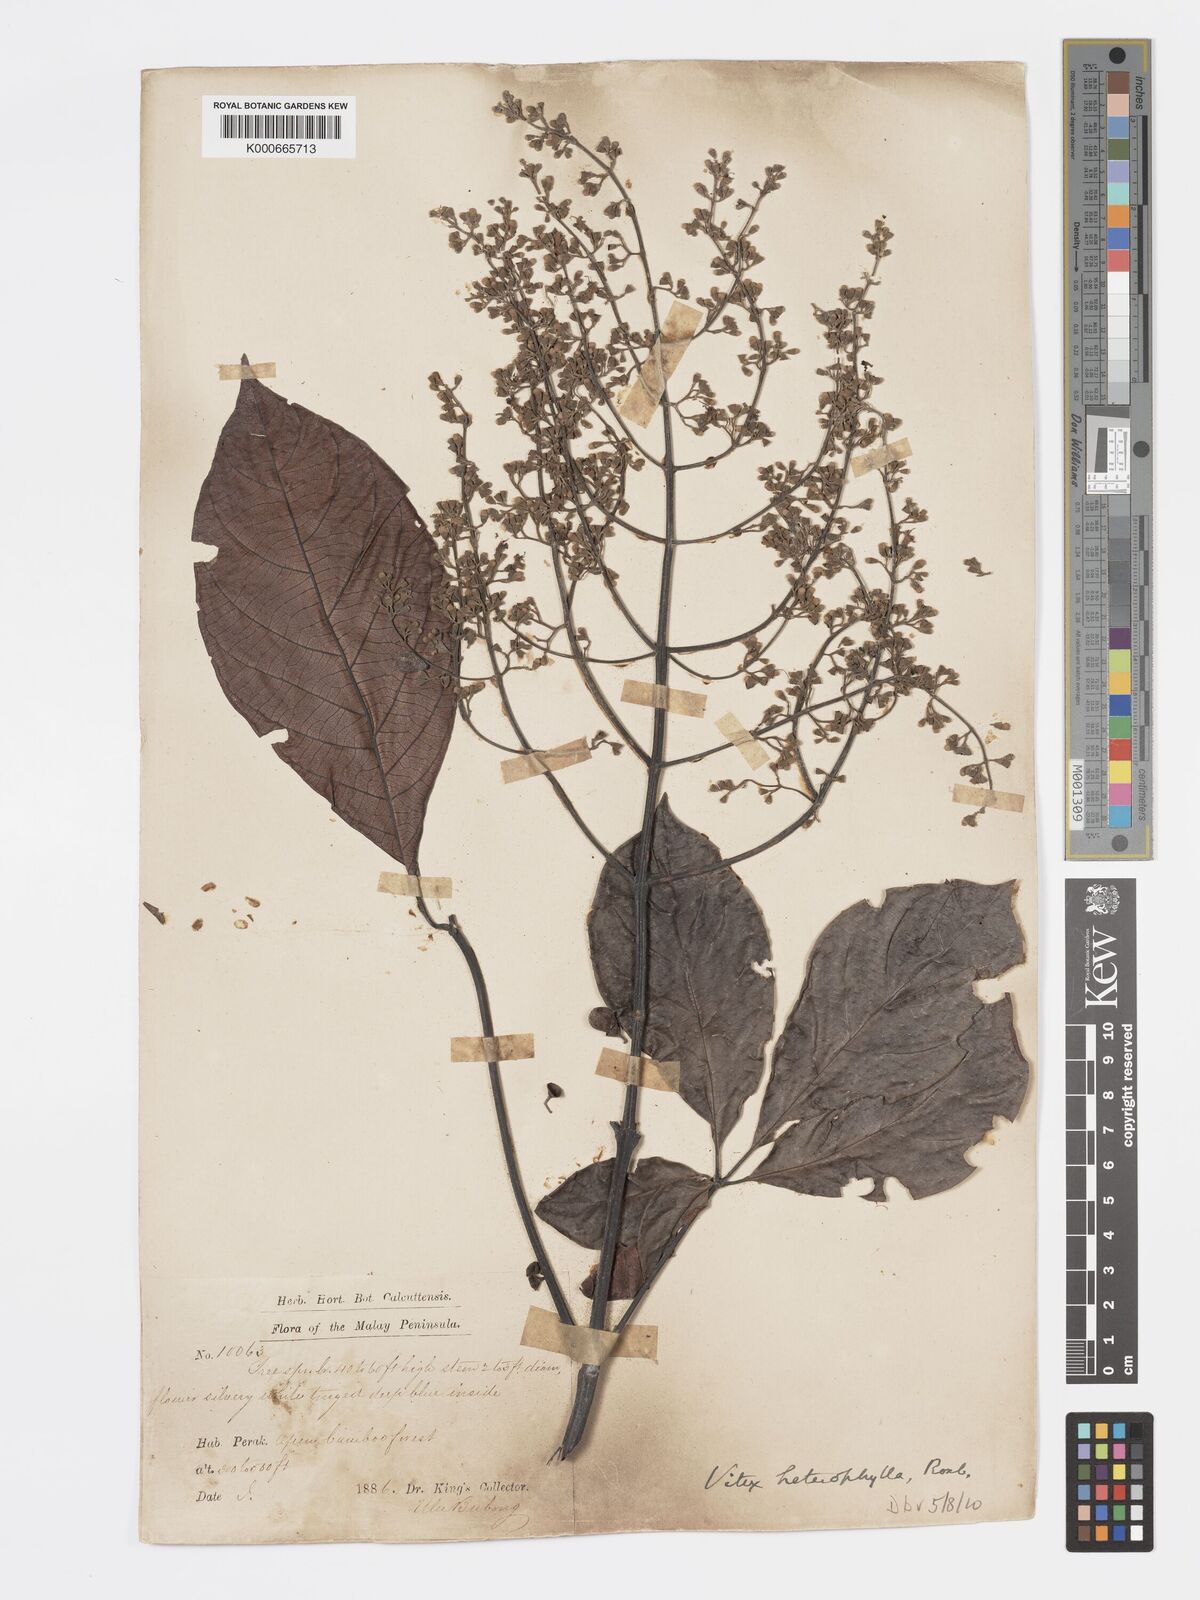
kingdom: Plantae
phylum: Tracheophyta
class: Magnoliopsida
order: Lamiales
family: Lamiaceae
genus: Vitex
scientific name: Vitex quinata
